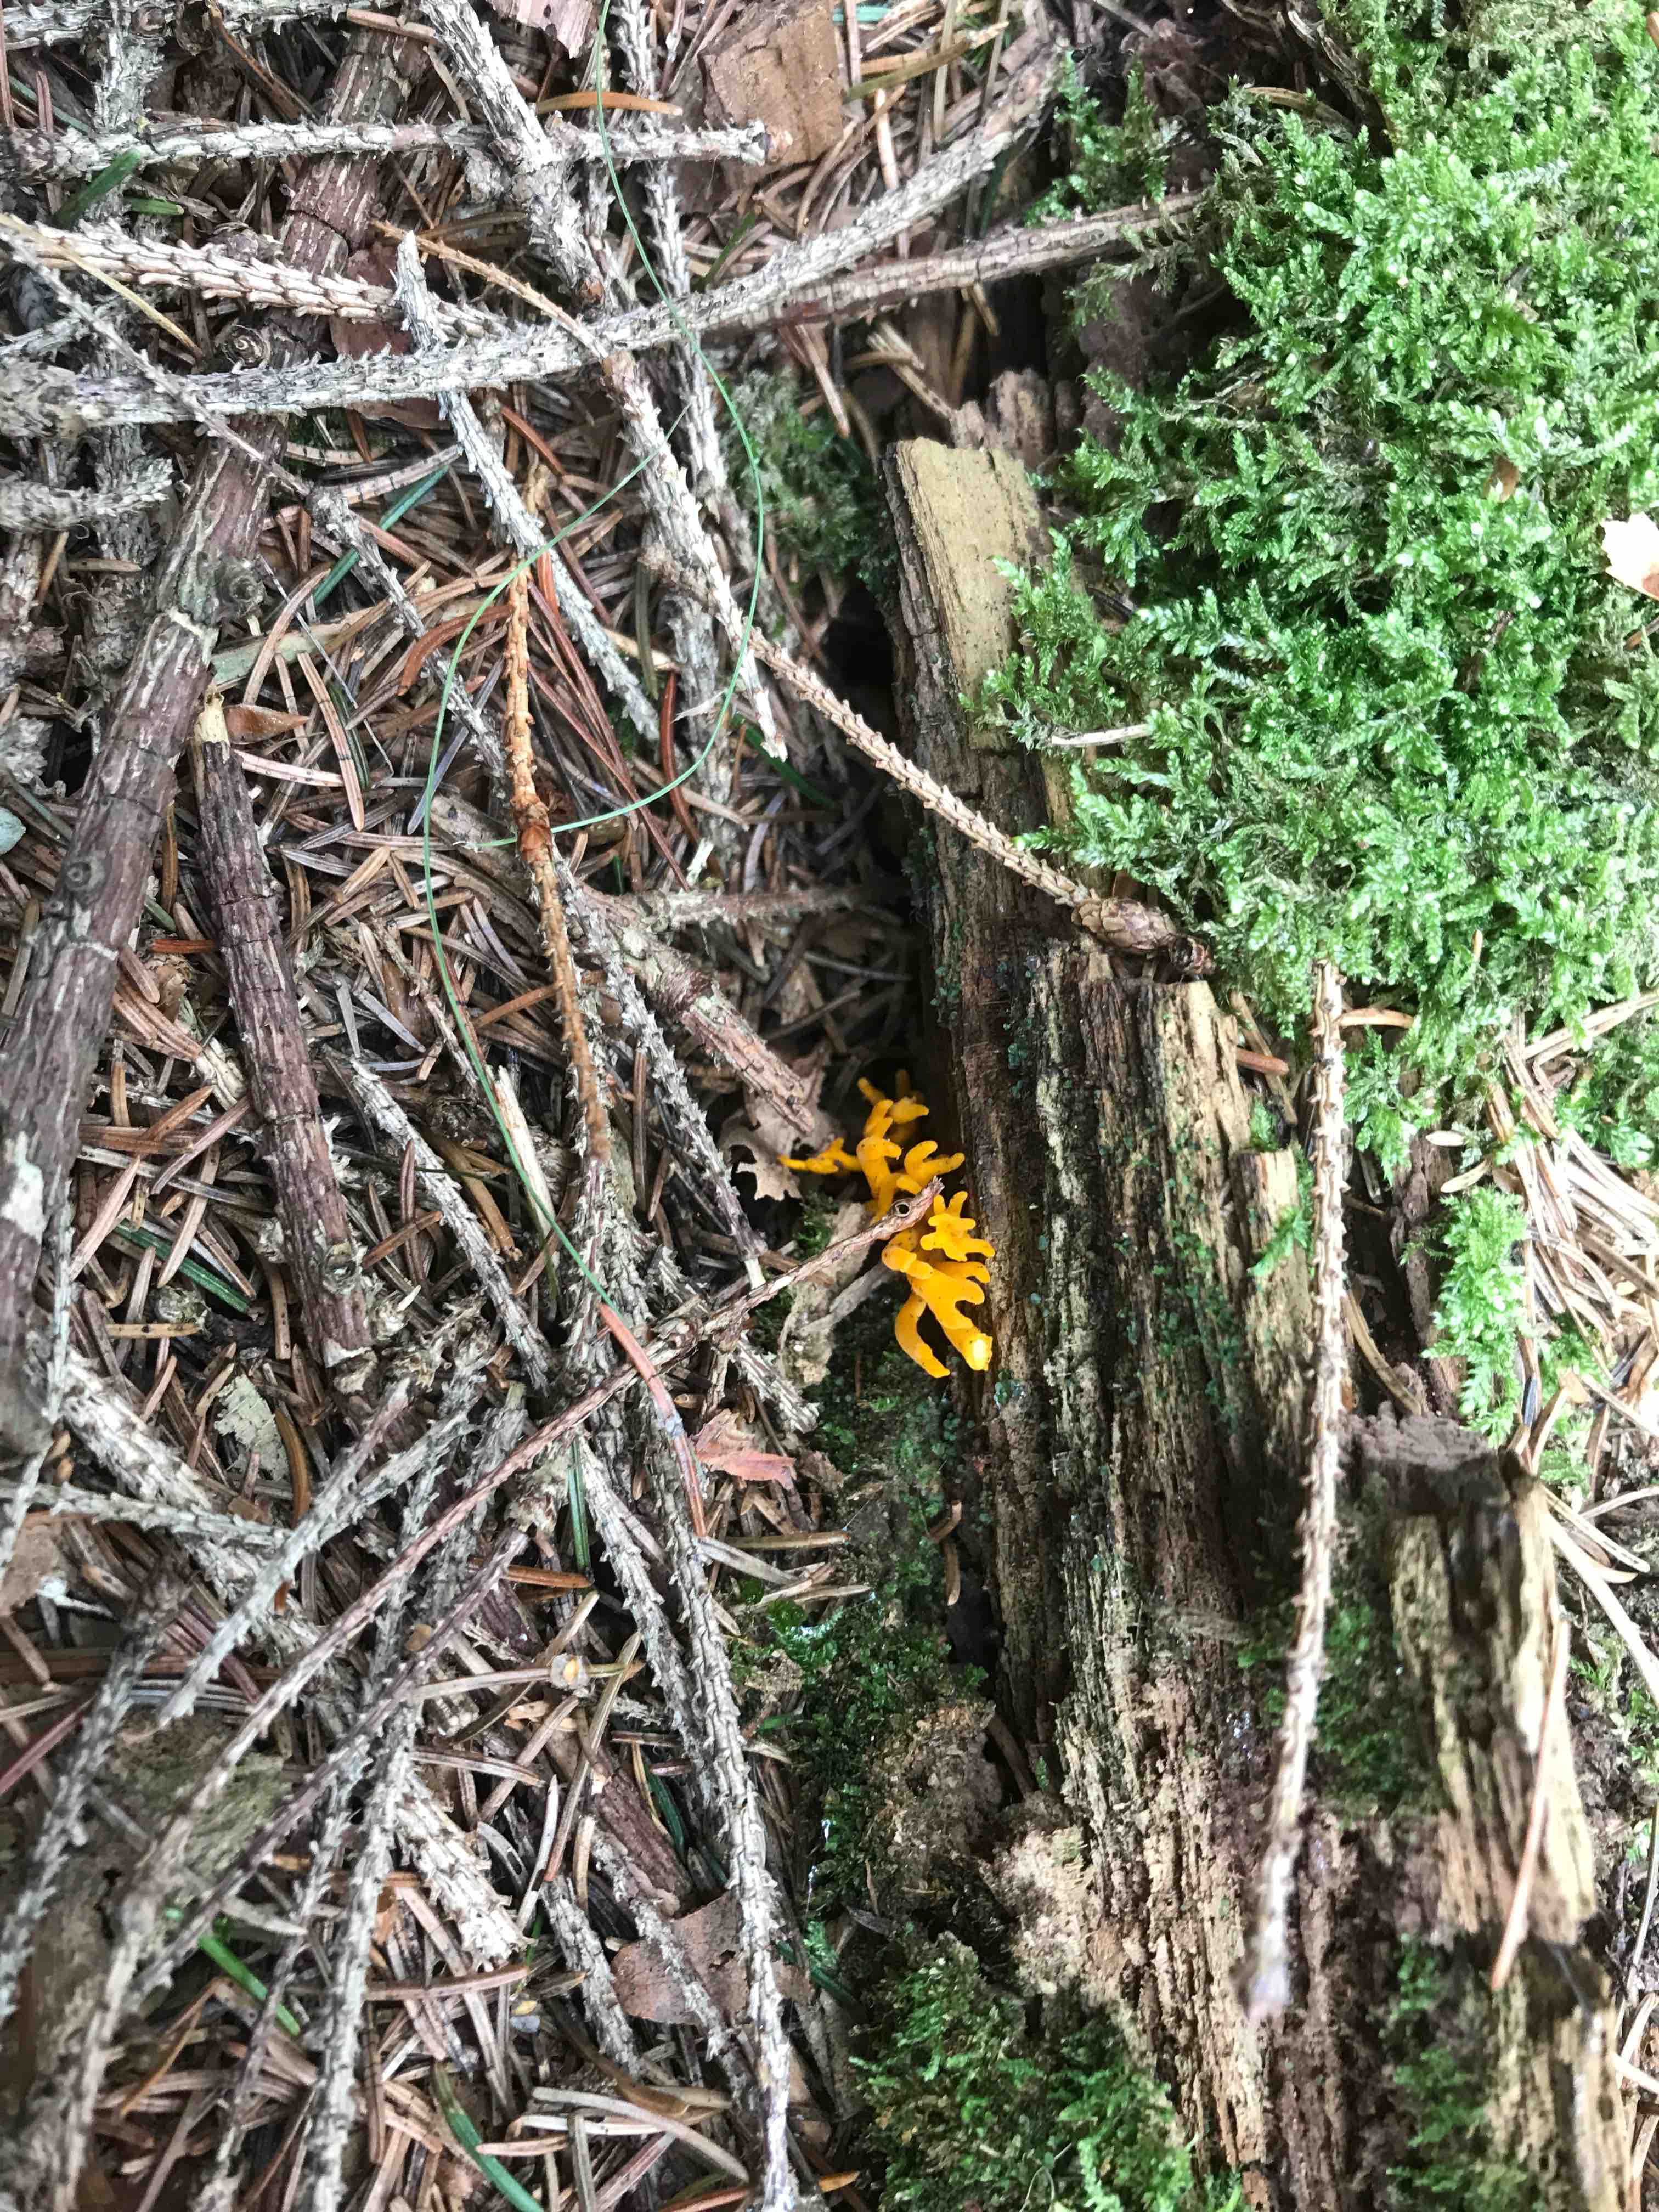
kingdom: Fungi
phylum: Basidiomycota
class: Dacrymycetes
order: Dacrymycetales
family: Dacrymycetaceae
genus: Calocera
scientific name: Calocera viscosa
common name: almindelig guldgaffel
